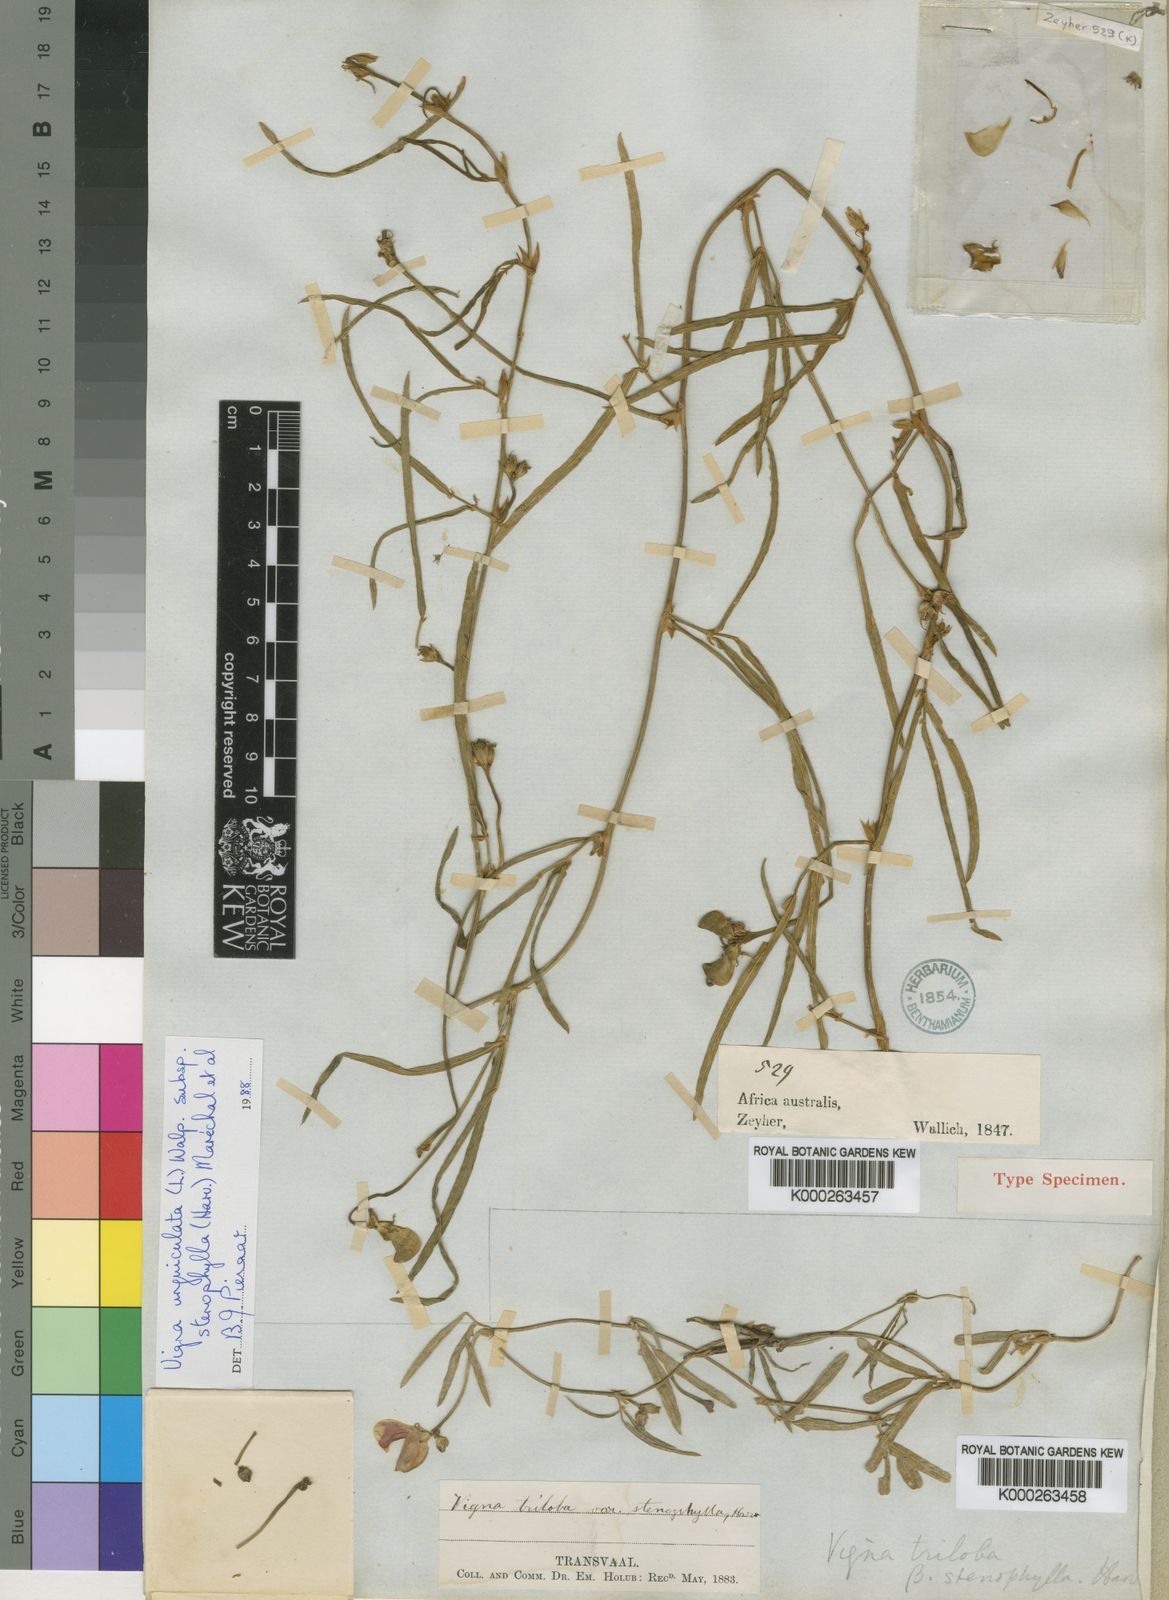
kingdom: Plantae
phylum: Tracheophyta
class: Magnoliopsida
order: Fabales
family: Fabaceae
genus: Vigna
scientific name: Vigna unguiculata
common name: Cowpea
